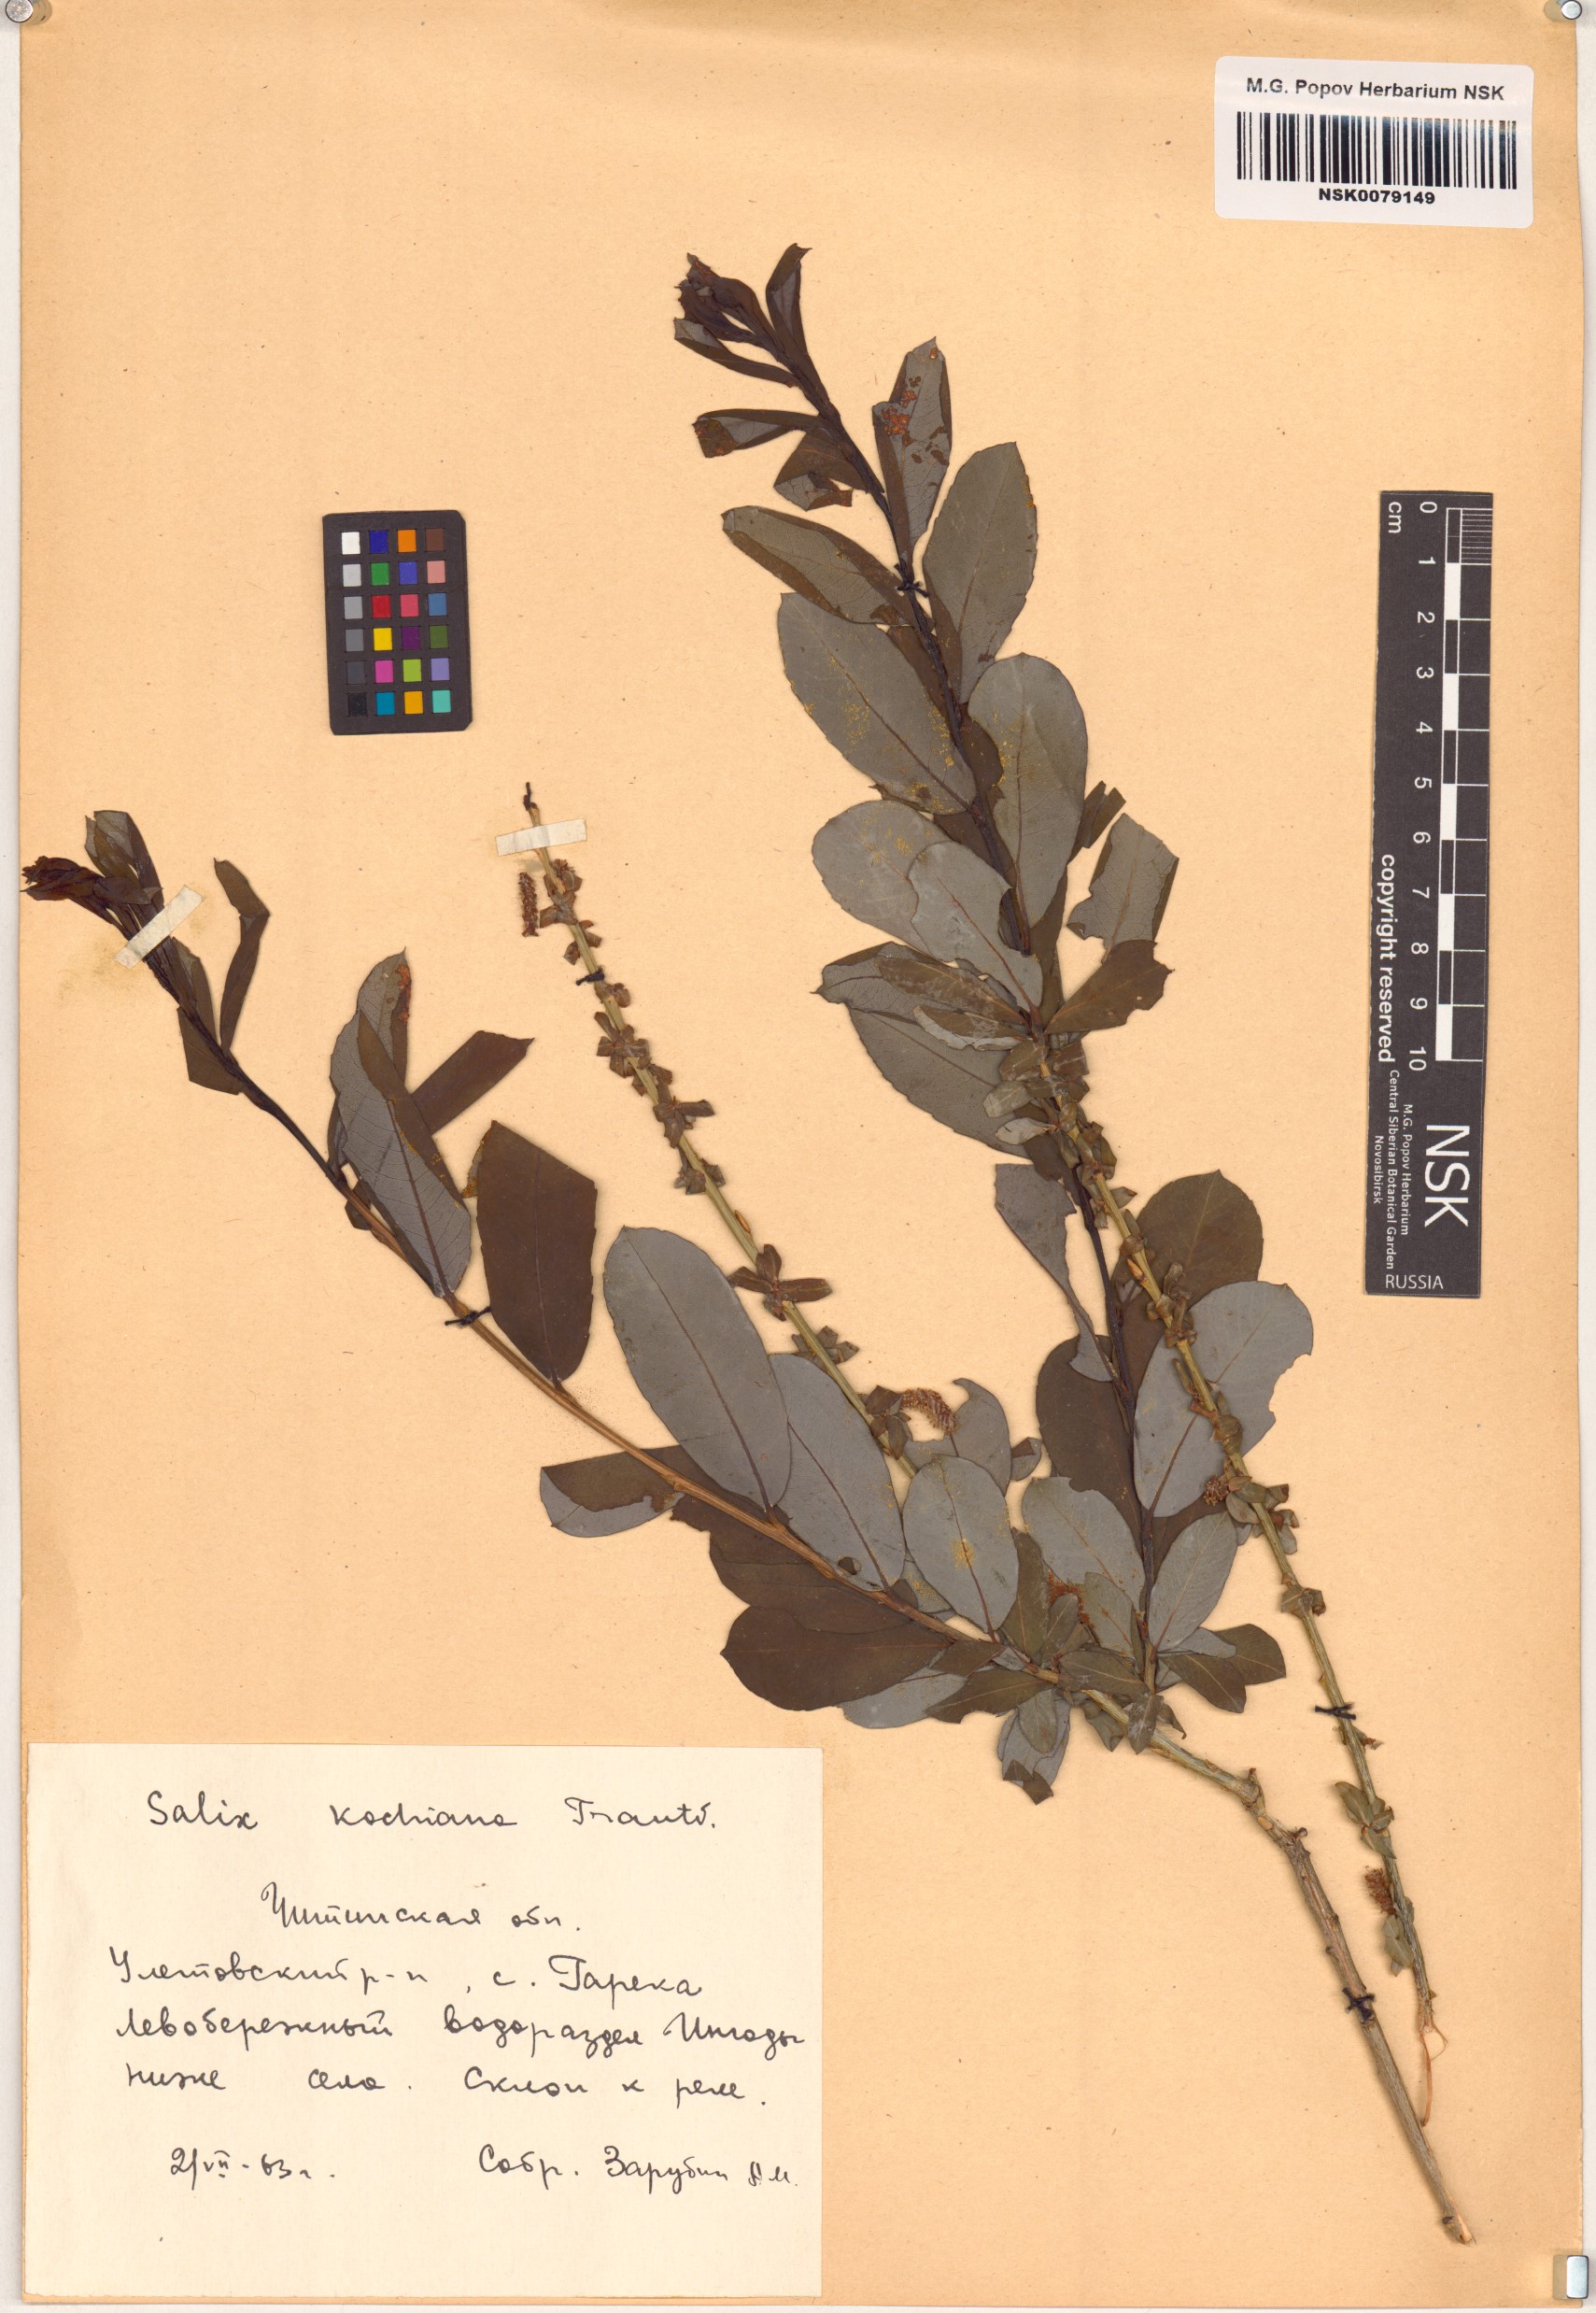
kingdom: Plantae
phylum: Tracheophyta
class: Magnoliopsida
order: Malpighiales
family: Salicaceae
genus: Salix
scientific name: Salix kochiana
